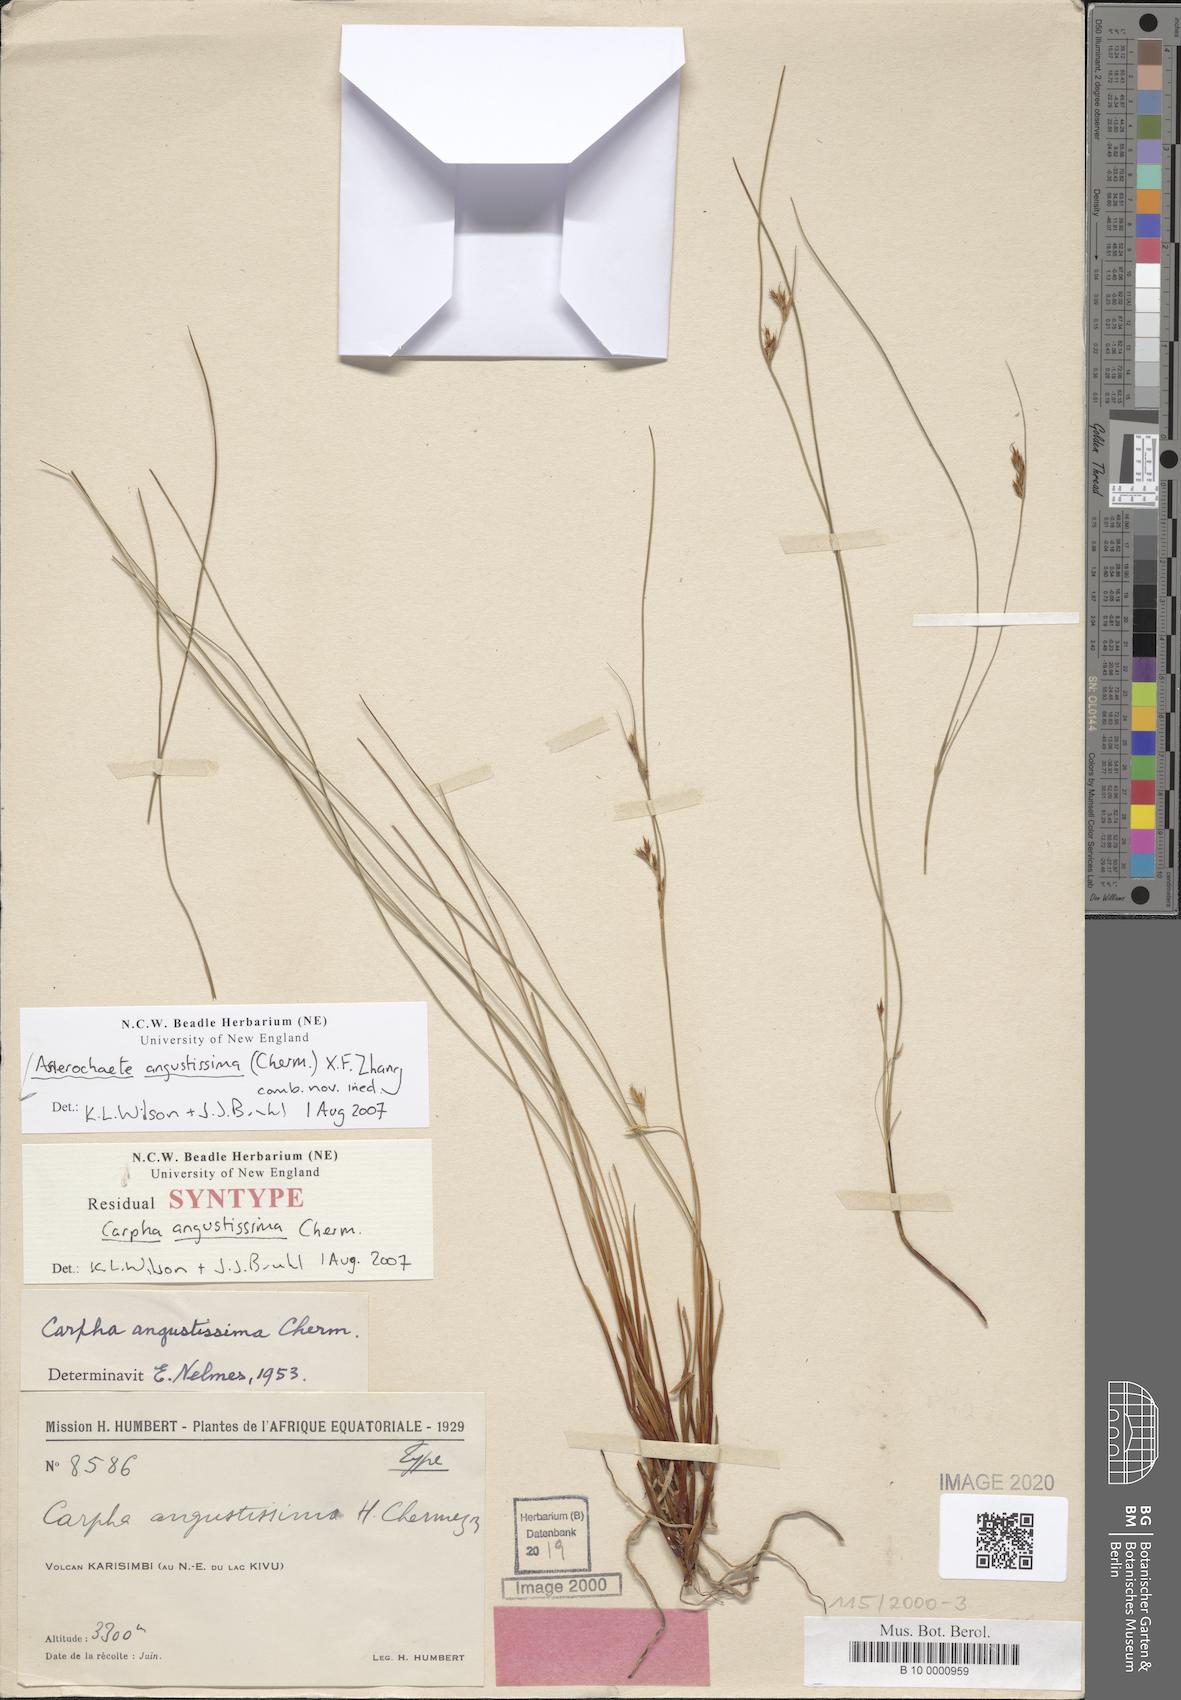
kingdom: Plantae
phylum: Tracheophyta
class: Liliopsida
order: Poales
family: Cyperaceae
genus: Carpha
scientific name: Carpha
